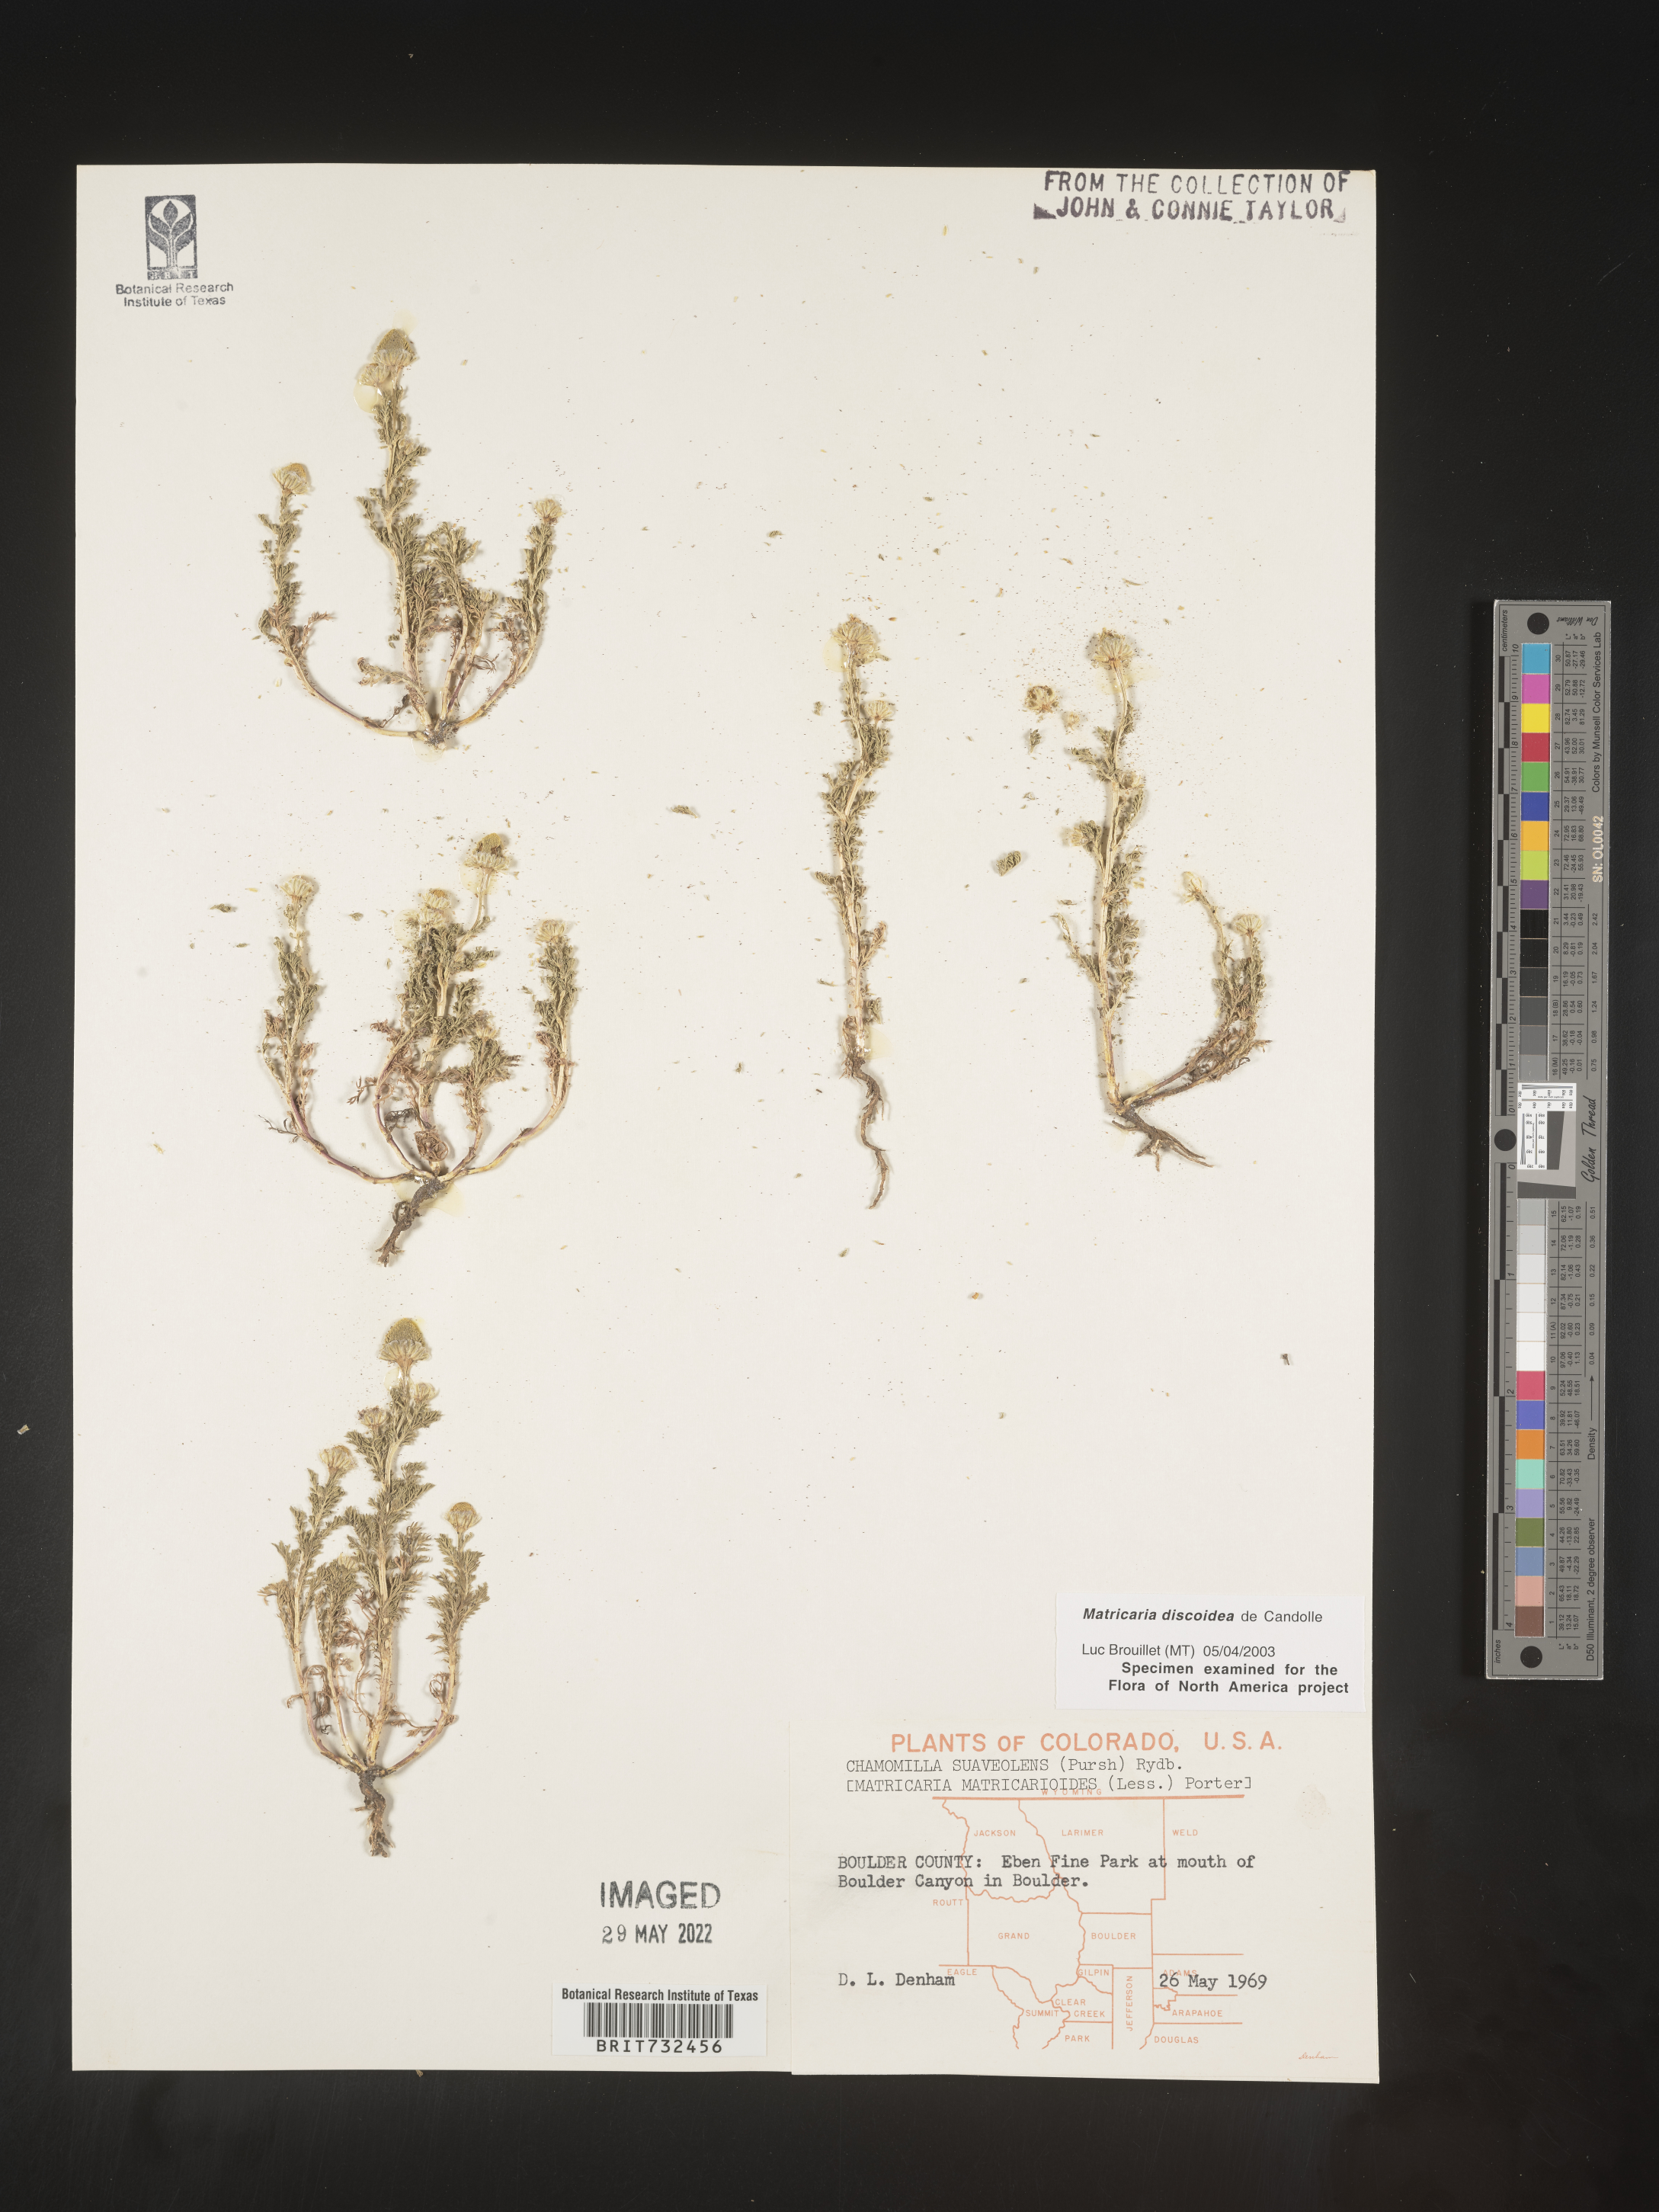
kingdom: Plantae
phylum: Tracheophyta
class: Magnoliopsida
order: Asterales
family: Asteraceae
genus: Matricaria
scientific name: Matricaria discoidea
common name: Disc mayweed
